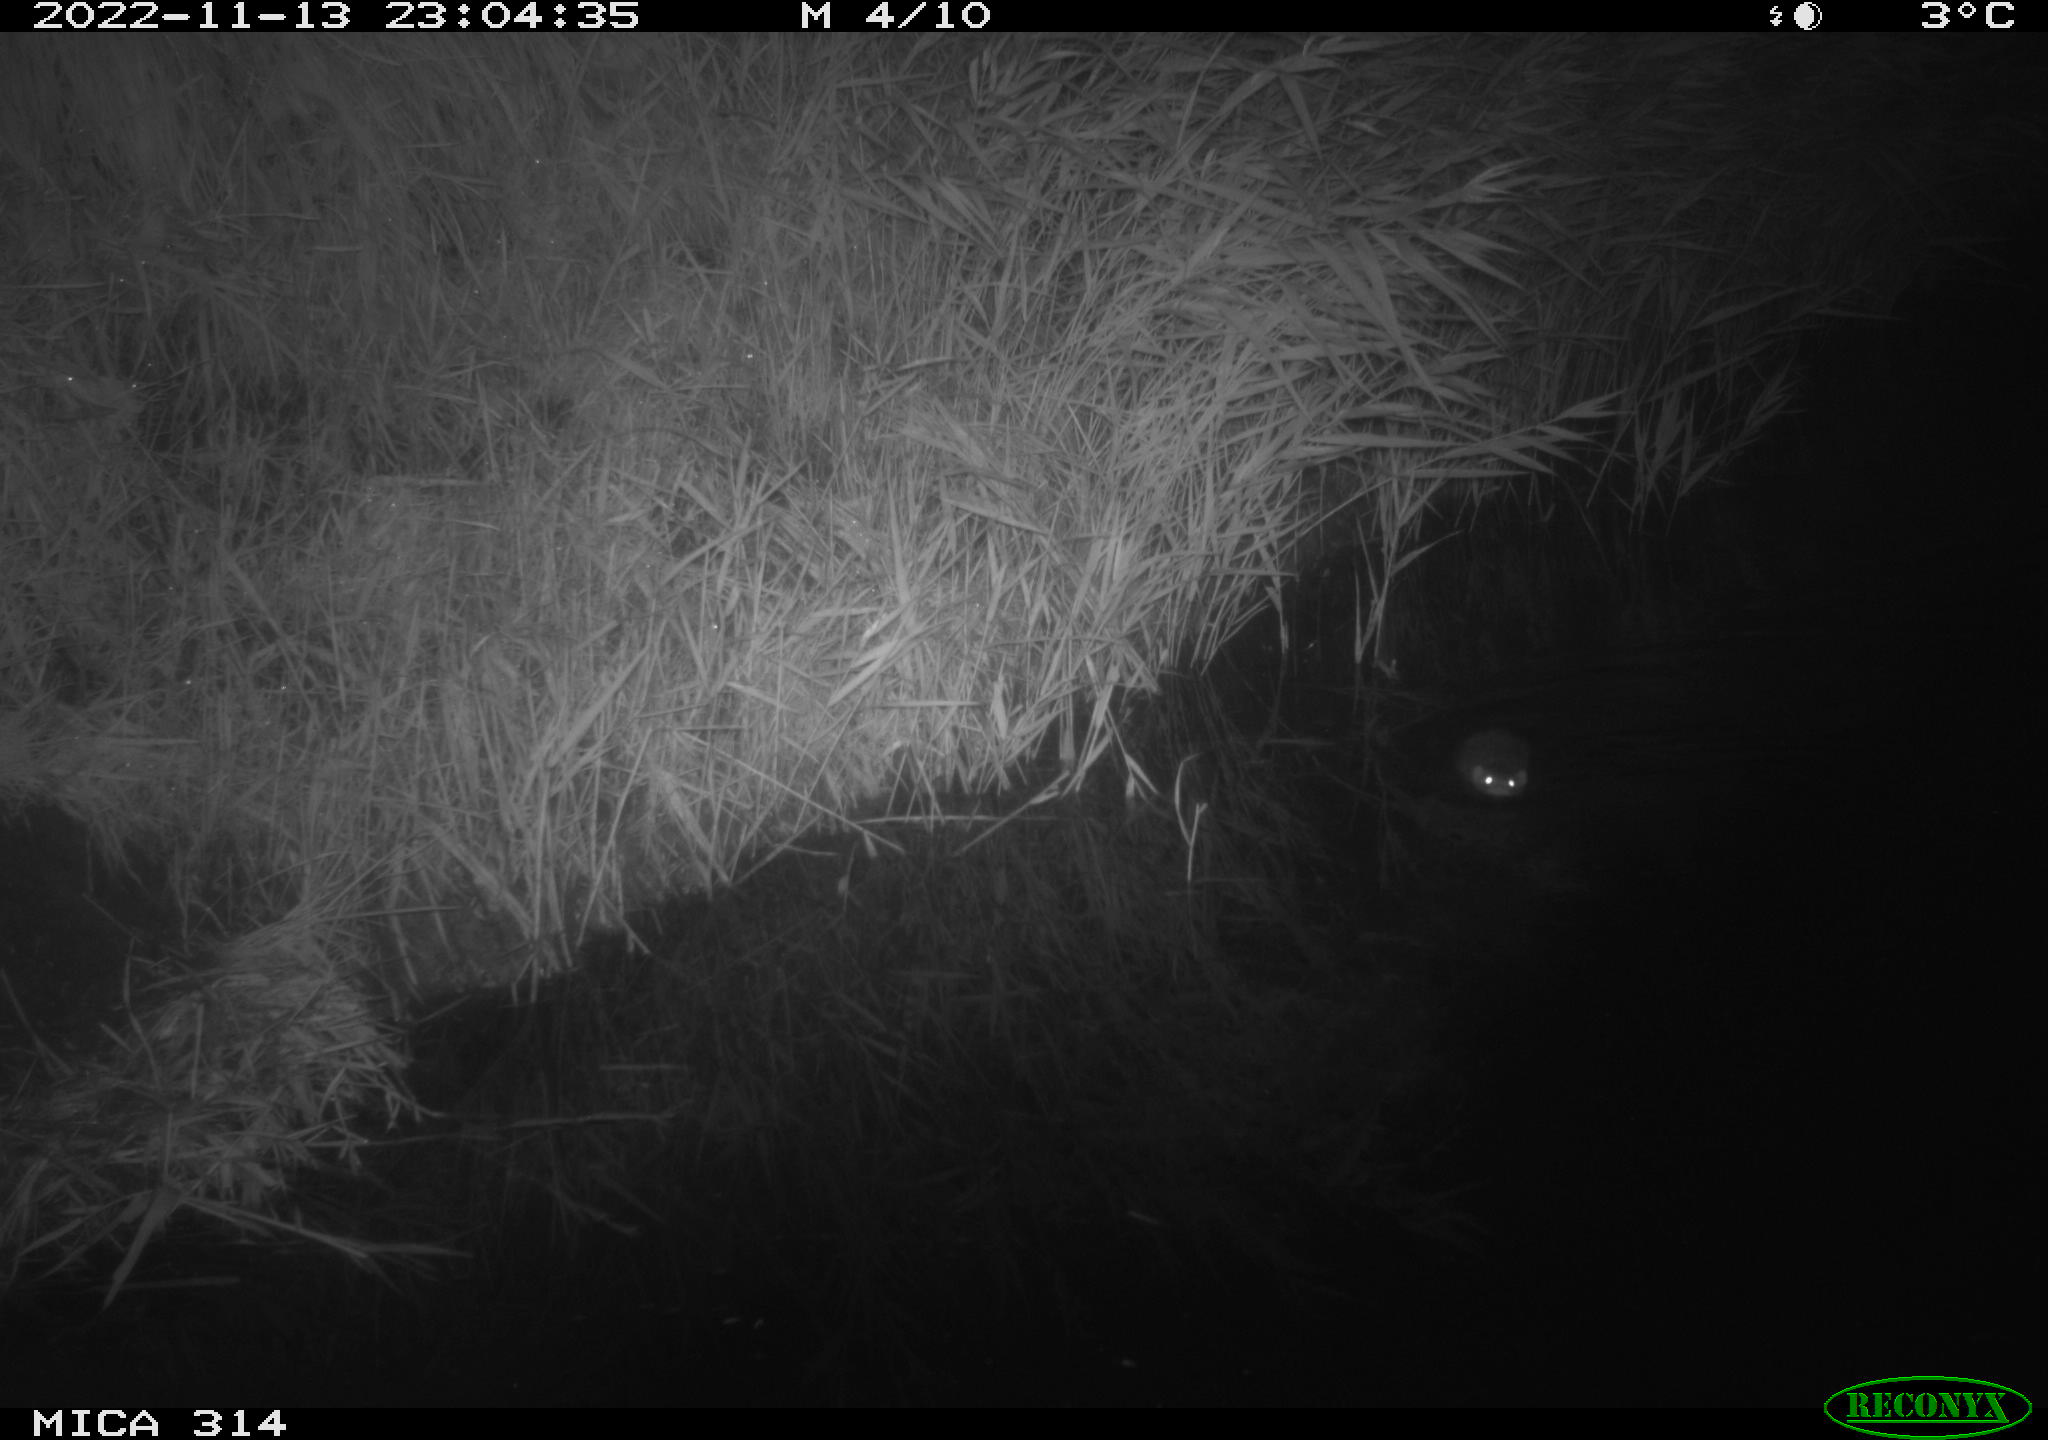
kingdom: Animalia
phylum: Chordata
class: Mammalia
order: Rodentia
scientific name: Rodentia
